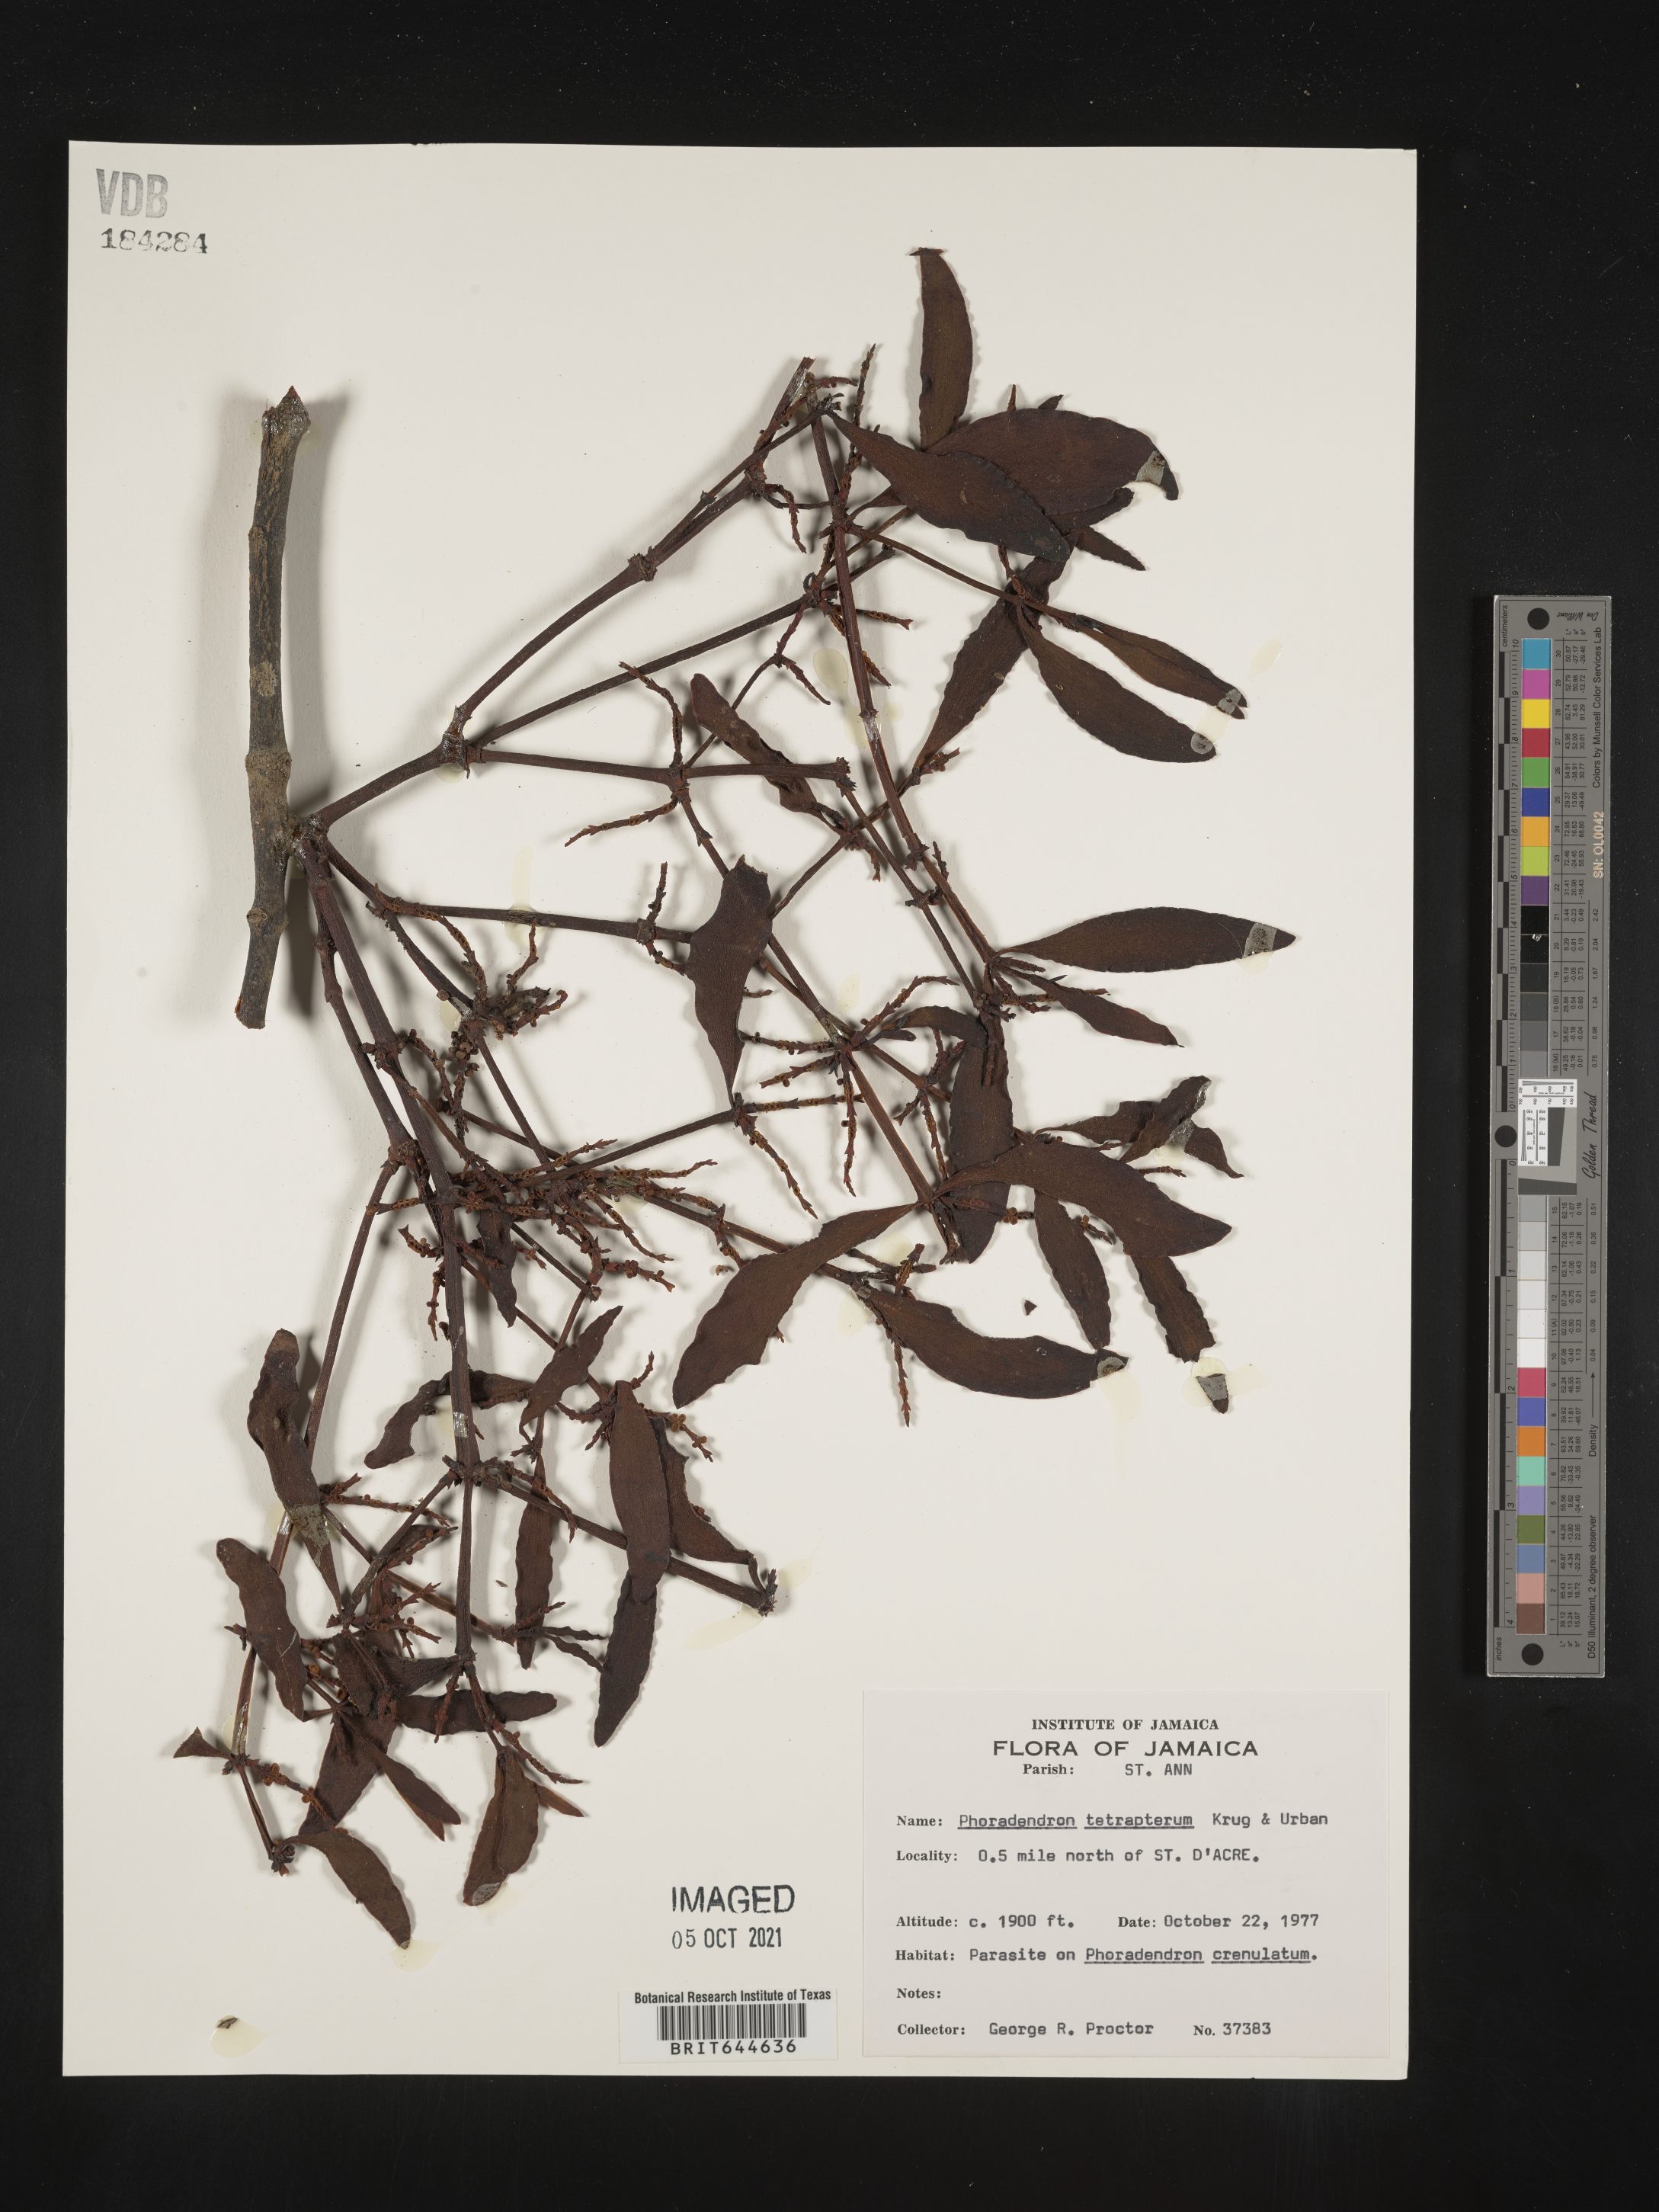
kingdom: Plantae
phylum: Tracheophyta
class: Magnoliopsida
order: Santalales
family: Viscaceae
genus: Phoradendron
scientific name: Phoradendron
